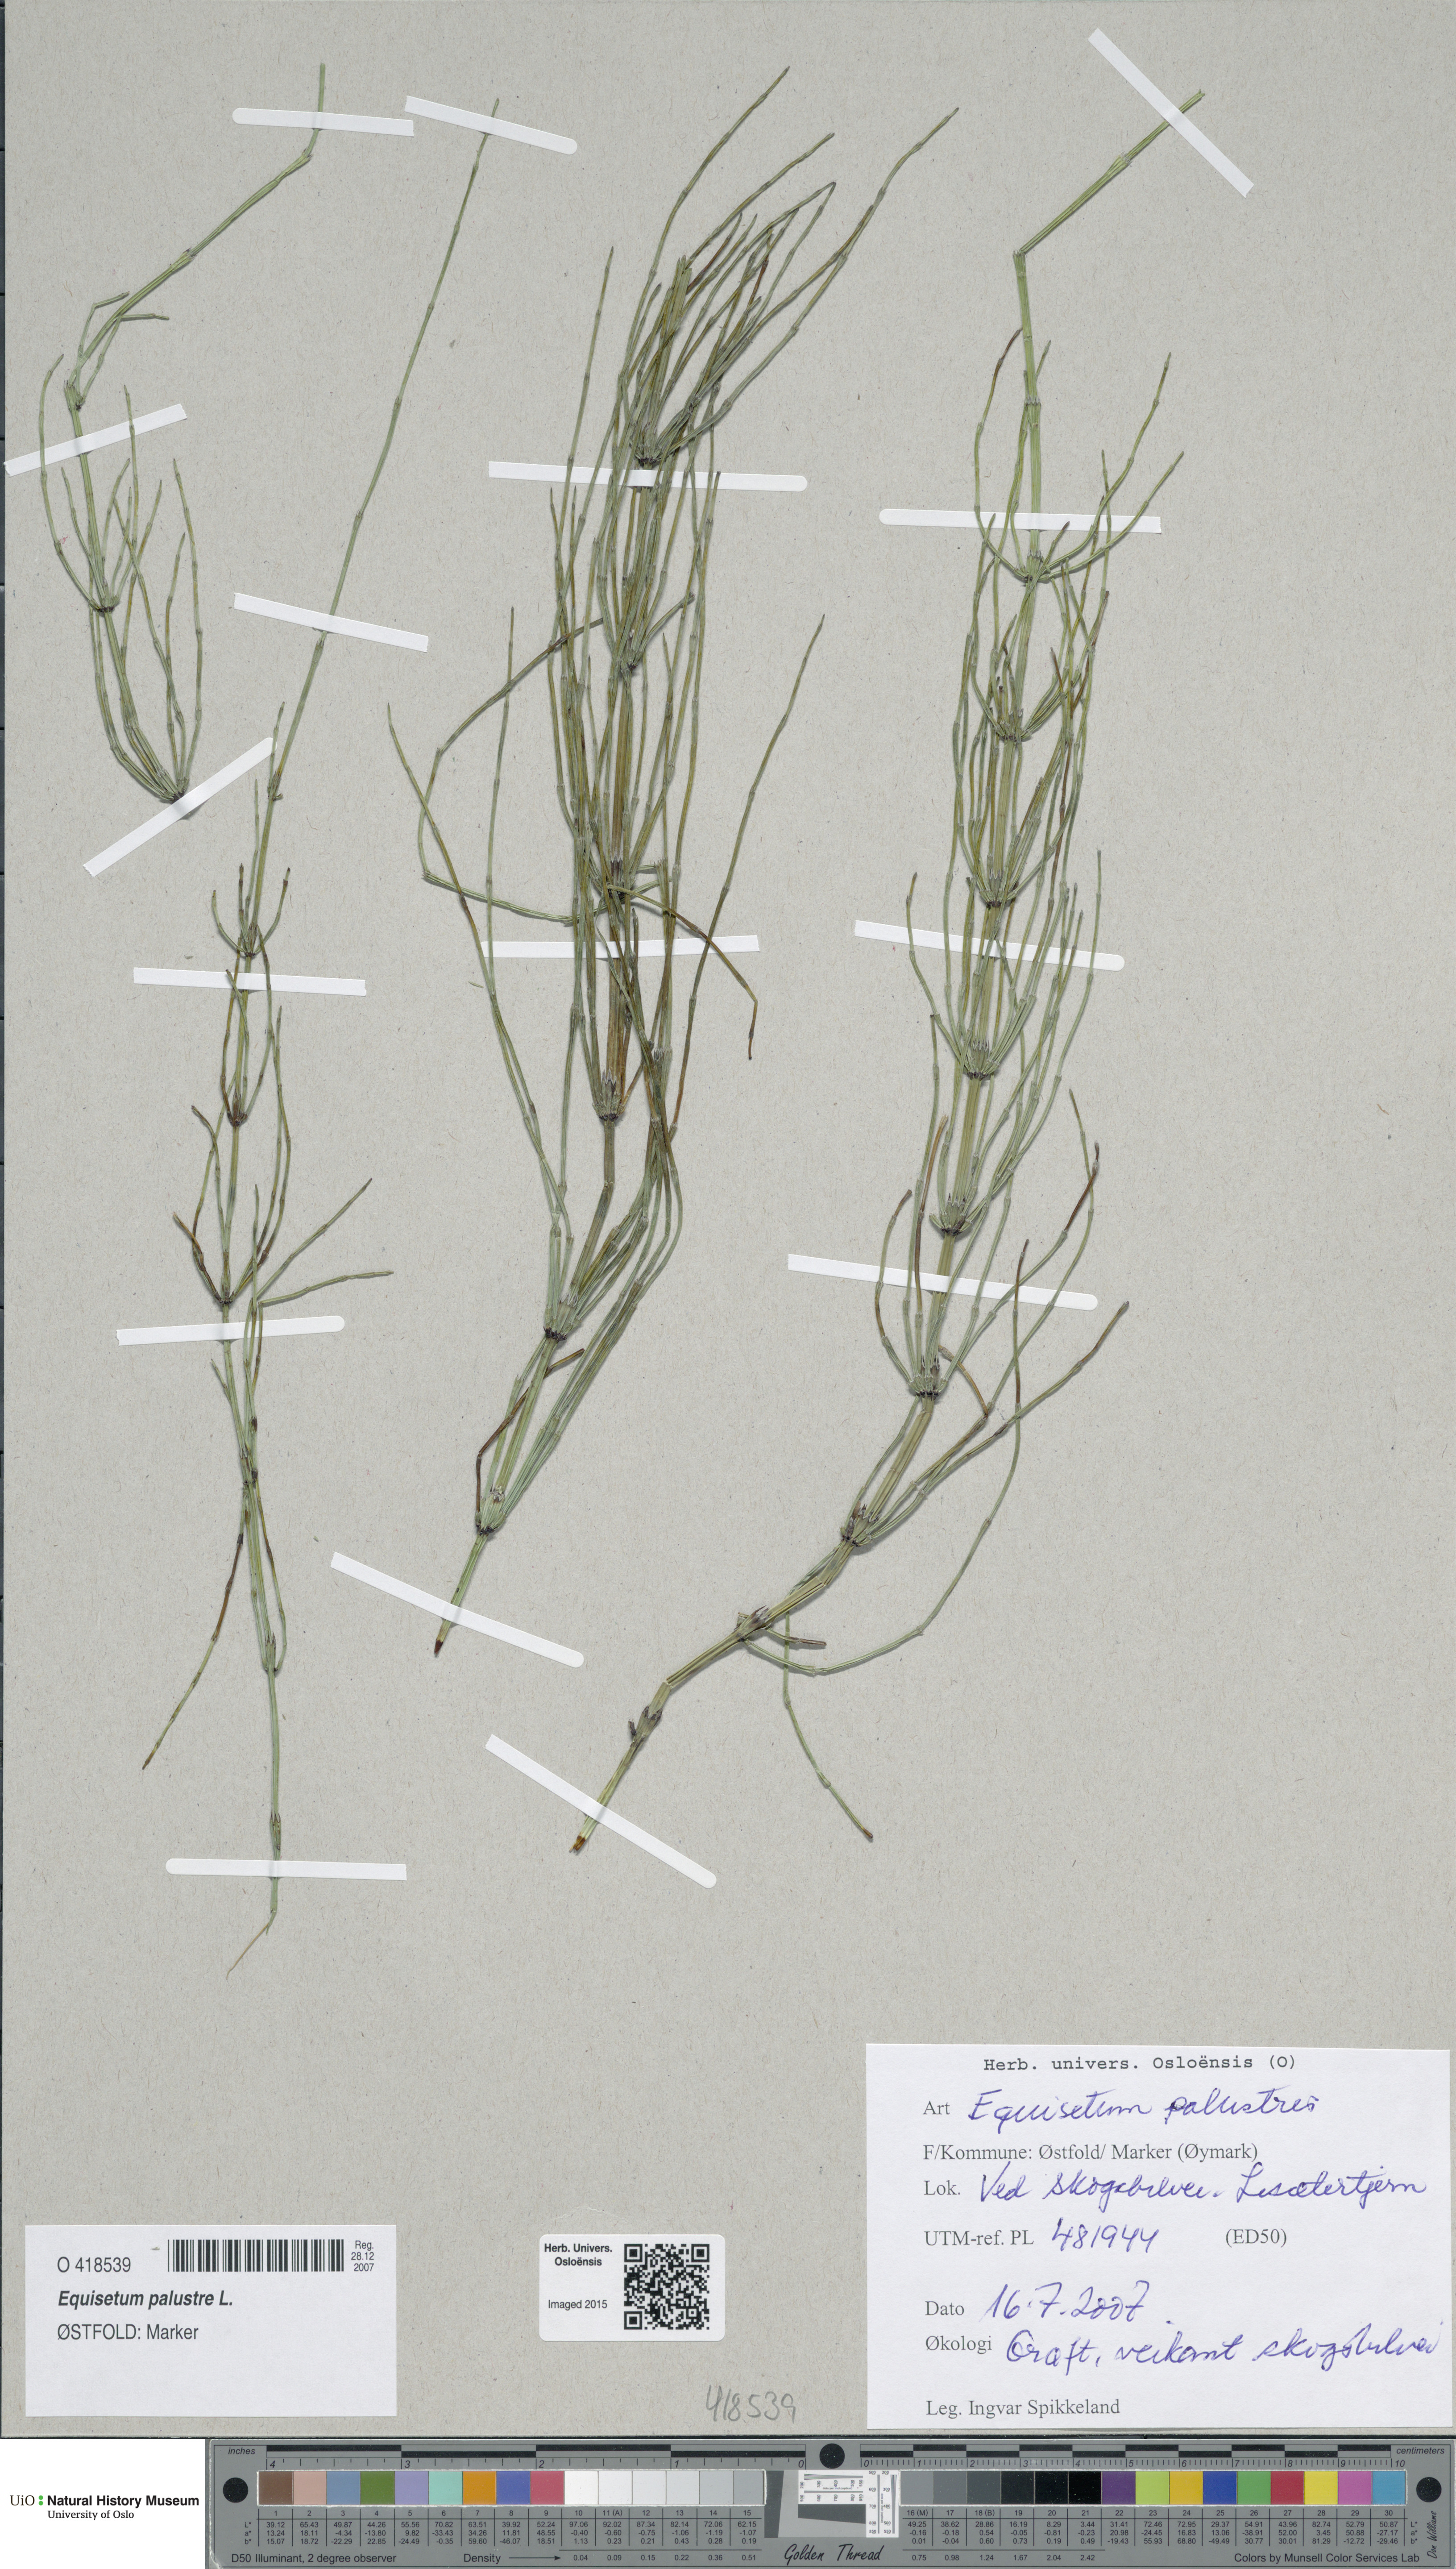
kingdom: Plantae
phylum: Tracheophyta
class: Polypodiopsida
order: Equisetales
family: Equisetaceae
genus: Equisetum
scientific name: Equisetum palustre
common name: Marsh horsetail
